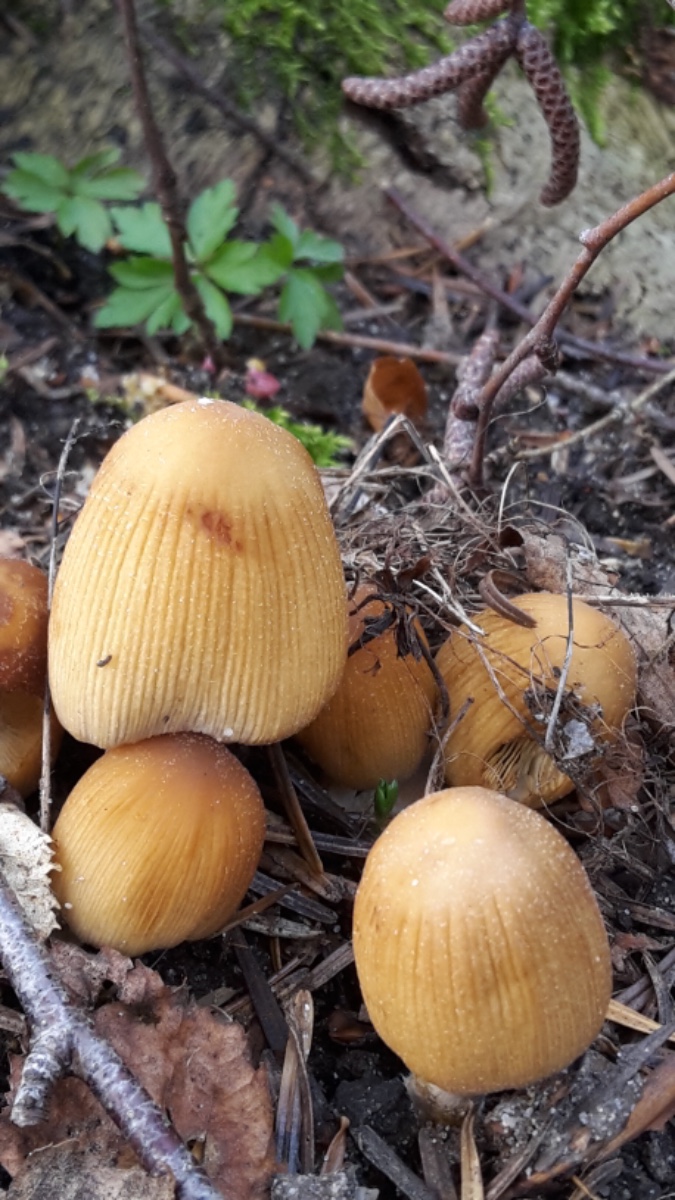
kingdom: Fungi
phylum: Basidiomycota
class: Agaricomycetes
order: Agaricales
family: Psathyrellaceae
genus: Coprinellus
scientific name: Coprinellus micaceus
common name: glimmer-blækhat
